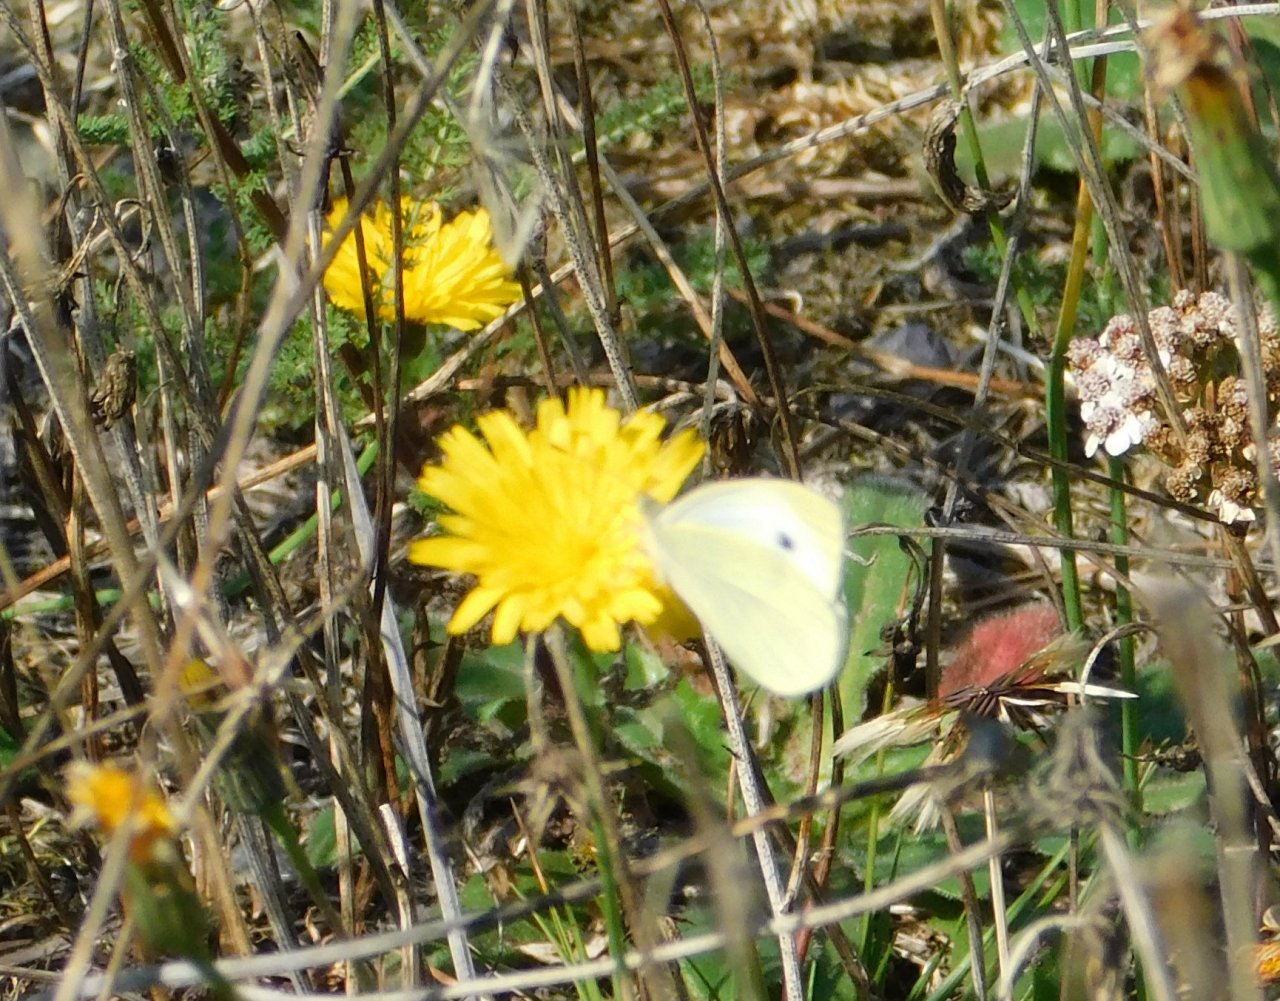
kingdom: Animalia
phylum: Arthropoda
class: Insecta
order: Lepidoptera
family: Pieridae
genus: Pieris
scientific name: Pieris rapae
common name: Cabbage White
